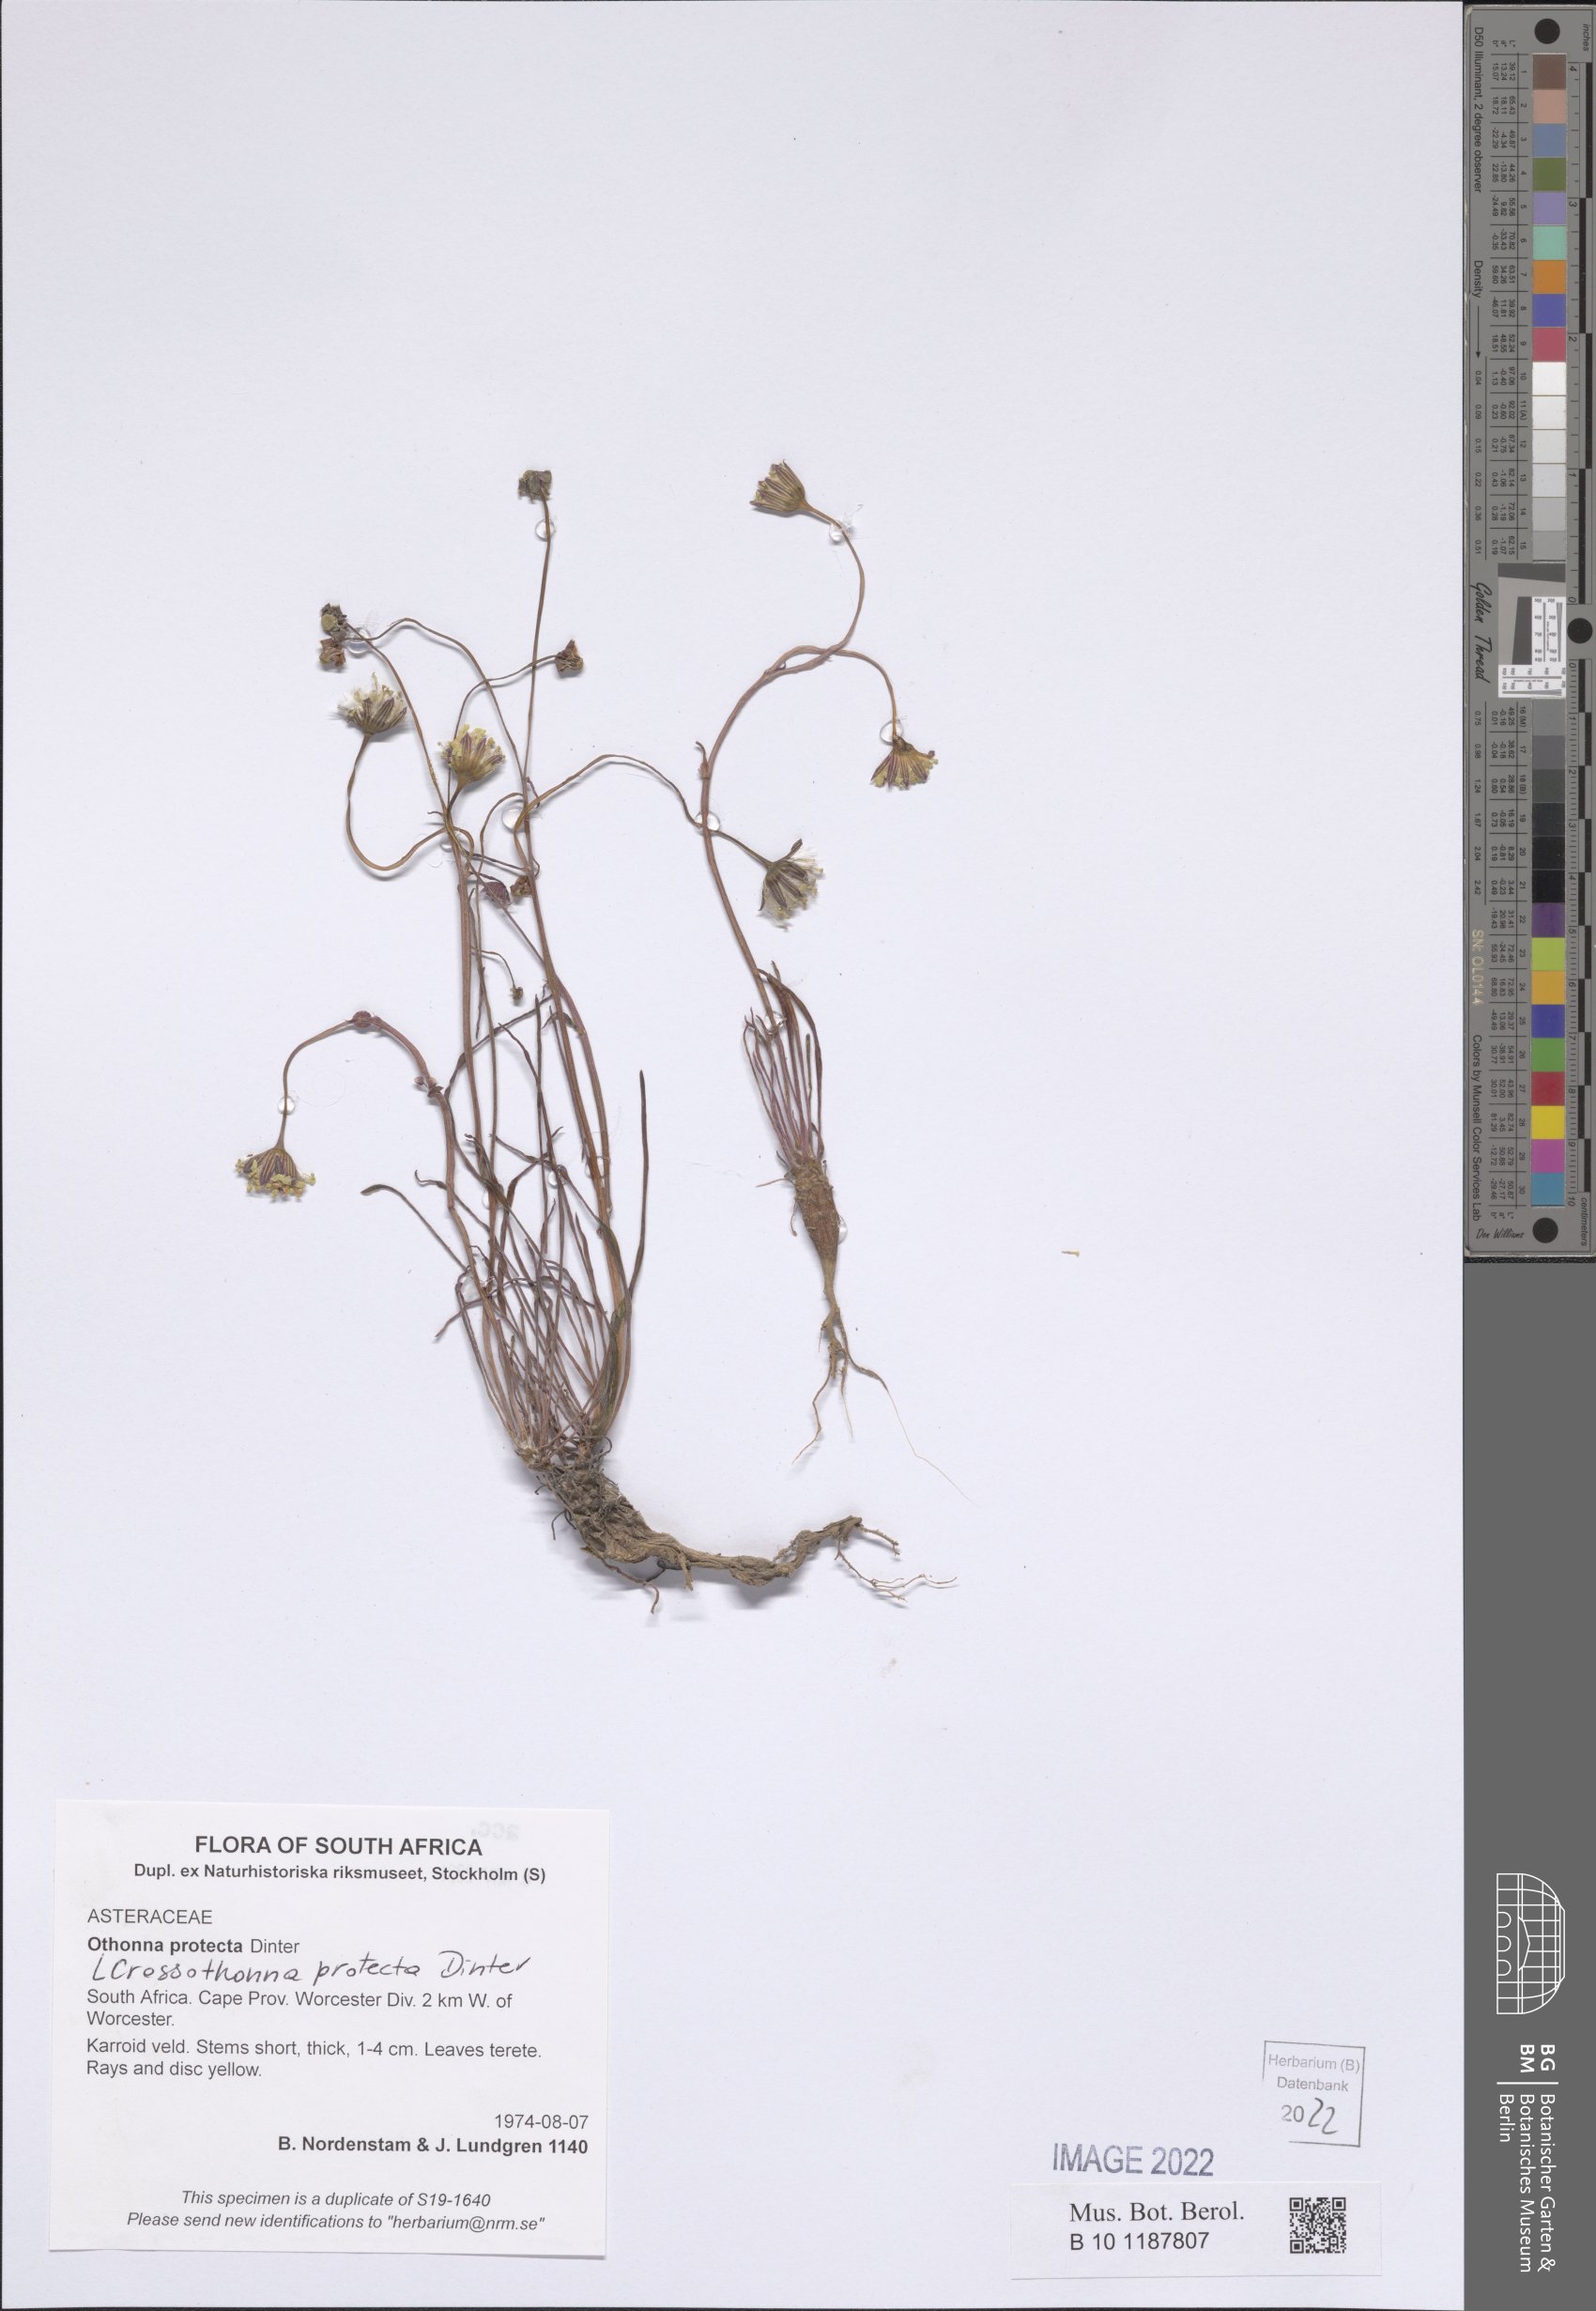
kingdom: Plantae
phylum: Tracheophyta
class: Magnoliopsida
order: Asterales
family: Asteraceae
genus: Crassothonna
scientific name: Crassothonna protecta
